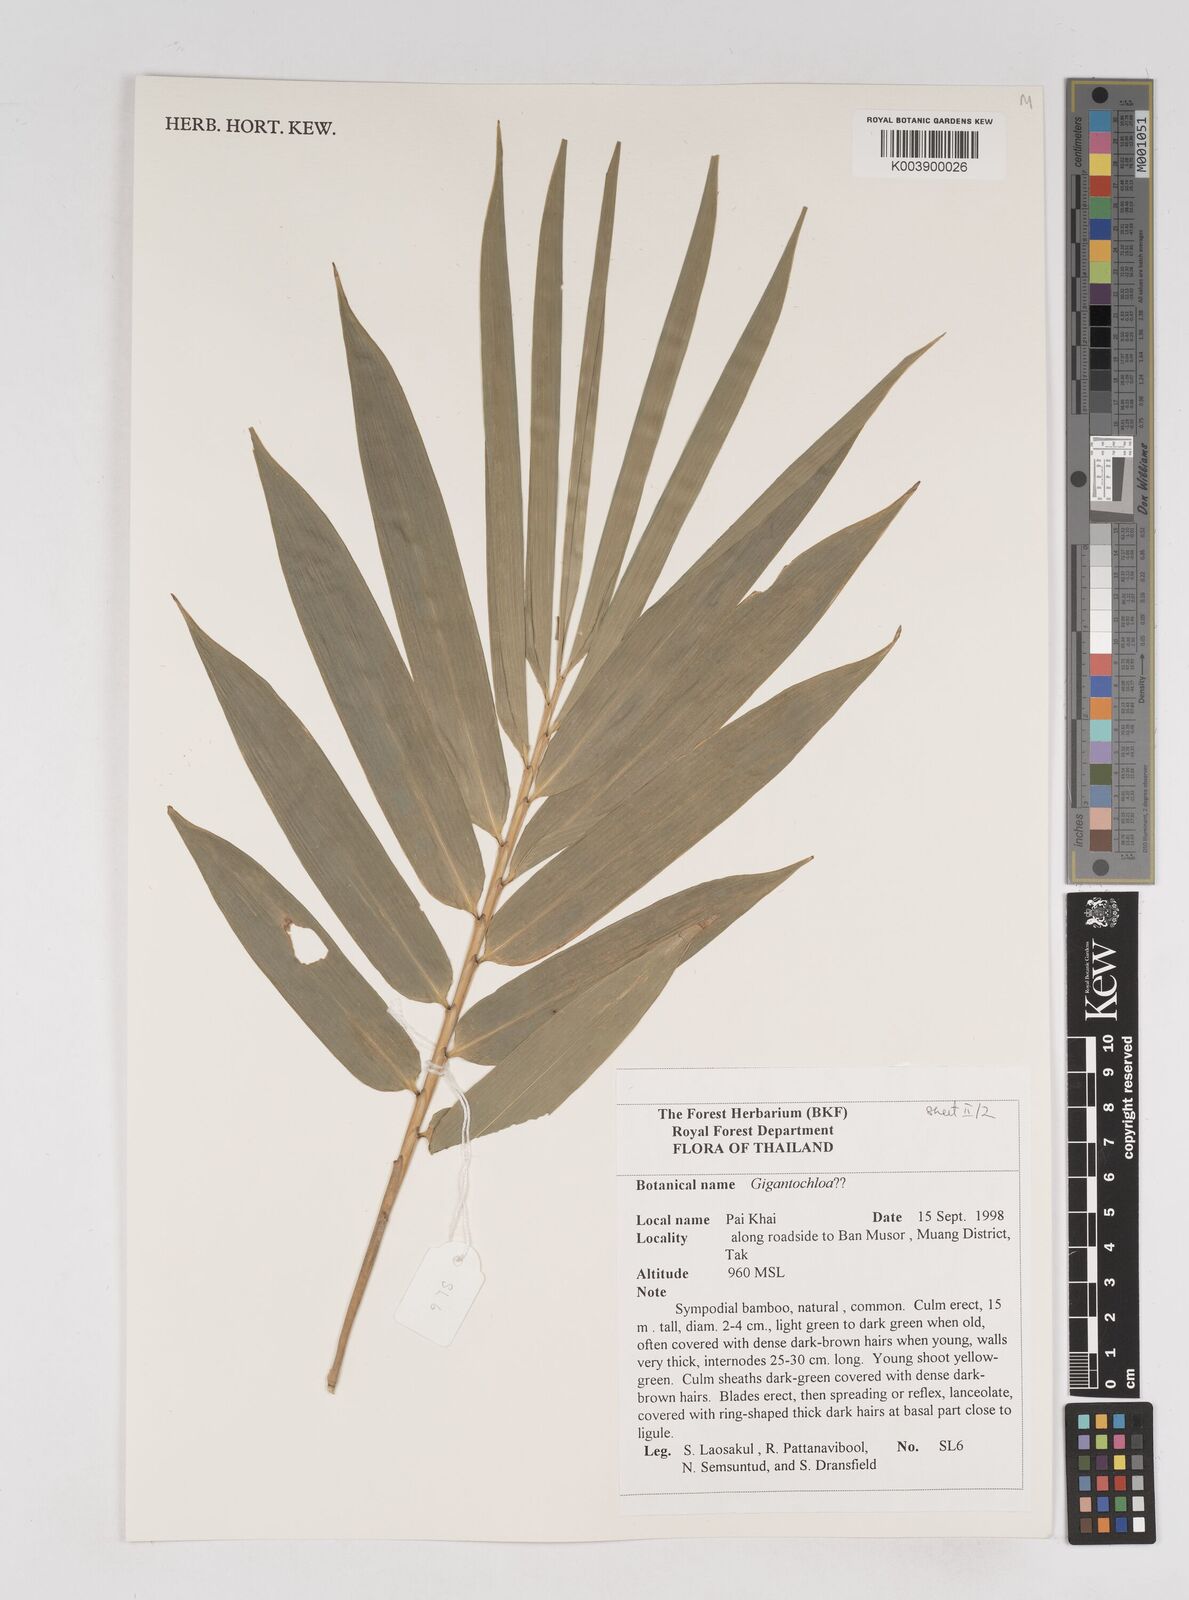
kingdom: Plantae
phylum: Tracheophyta
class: Liliopsida
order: Poales
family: Poaceae
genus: Gigantochloa
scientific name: Gigantochloa
